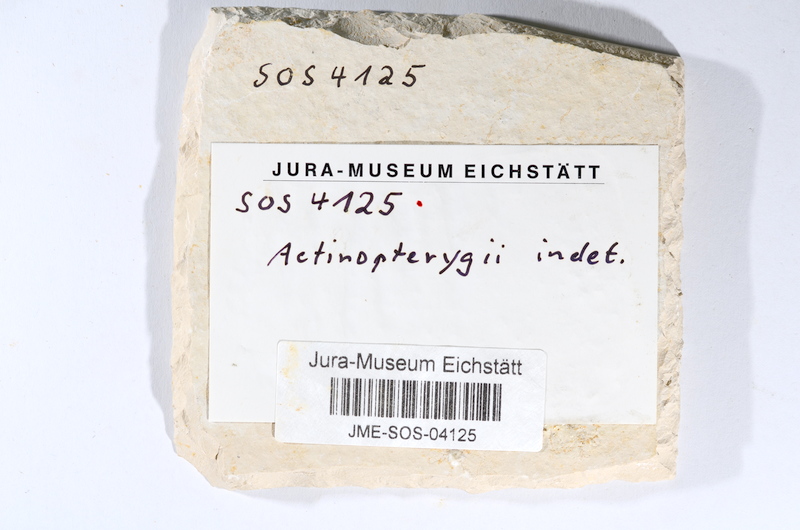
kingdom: Animalia
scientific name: Animalia
